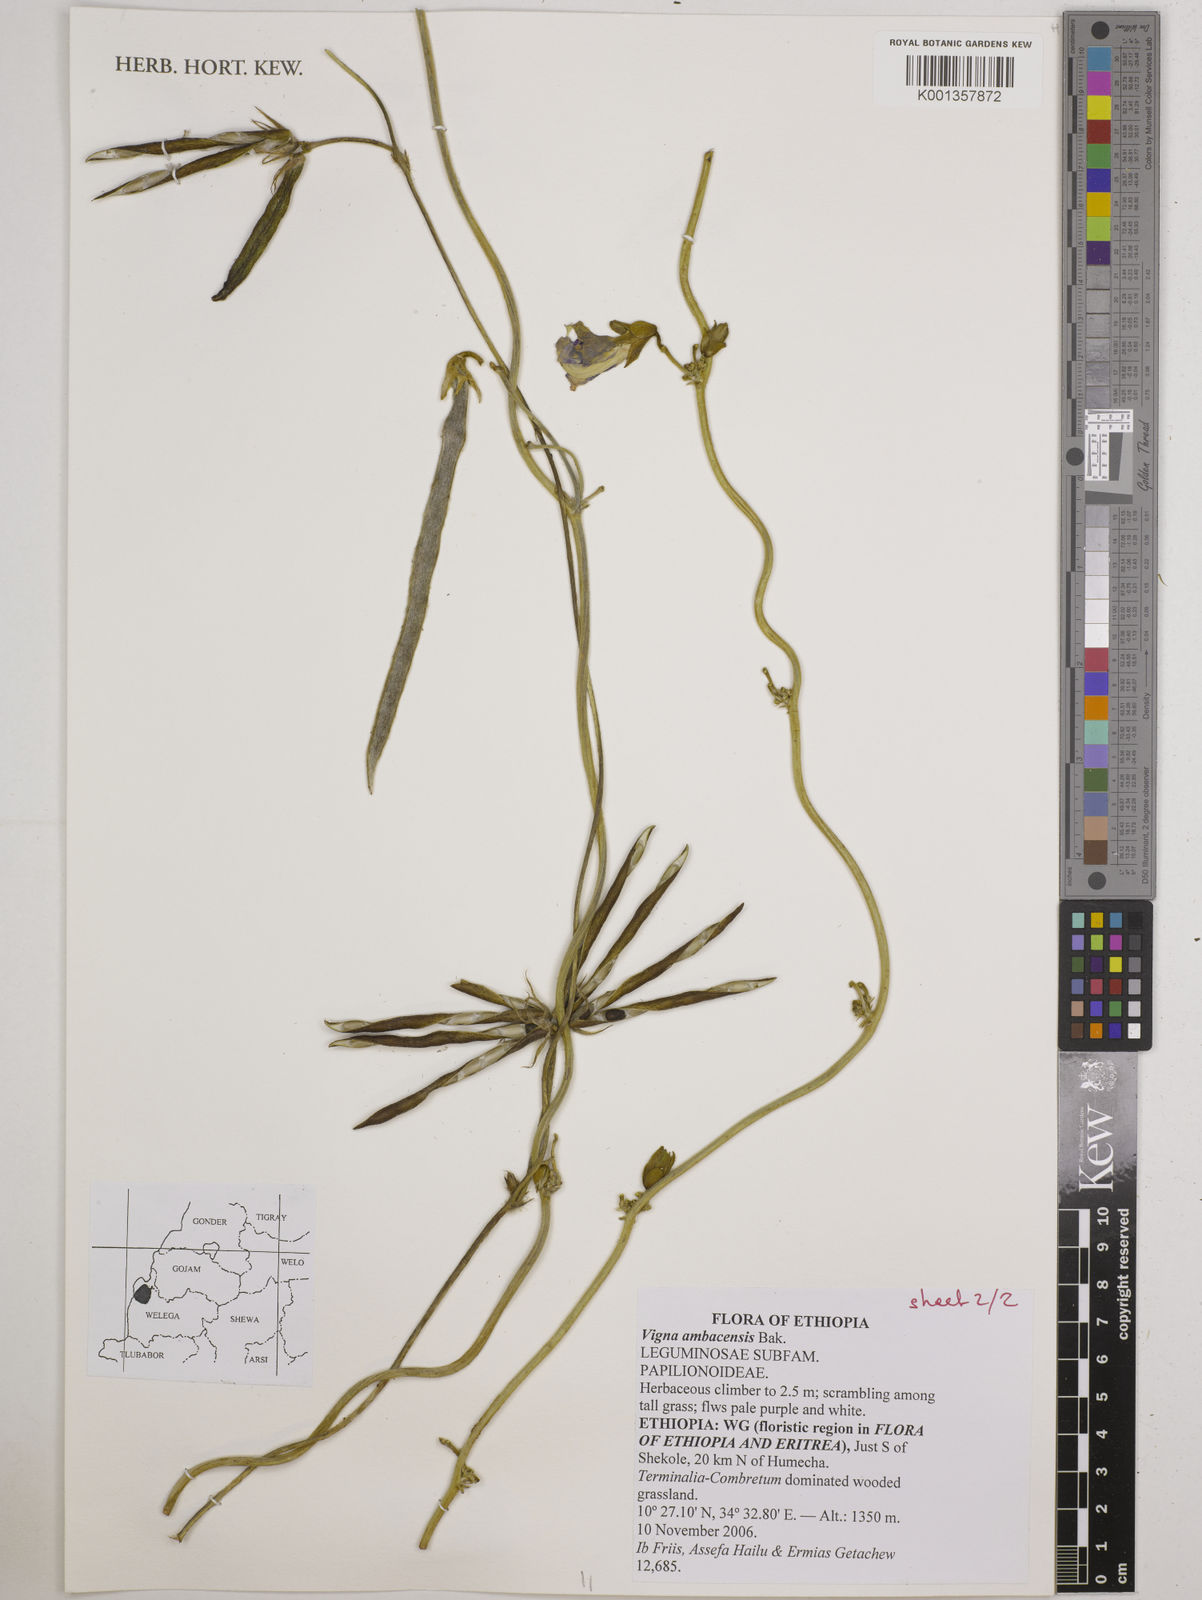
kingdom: Plantae
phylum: Tracheophyta
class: Magnoliopsida
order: Fabales
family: Fabaceae
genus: Vigna
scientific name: Vigna ambacensis
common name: Tsarkiyan zomo
